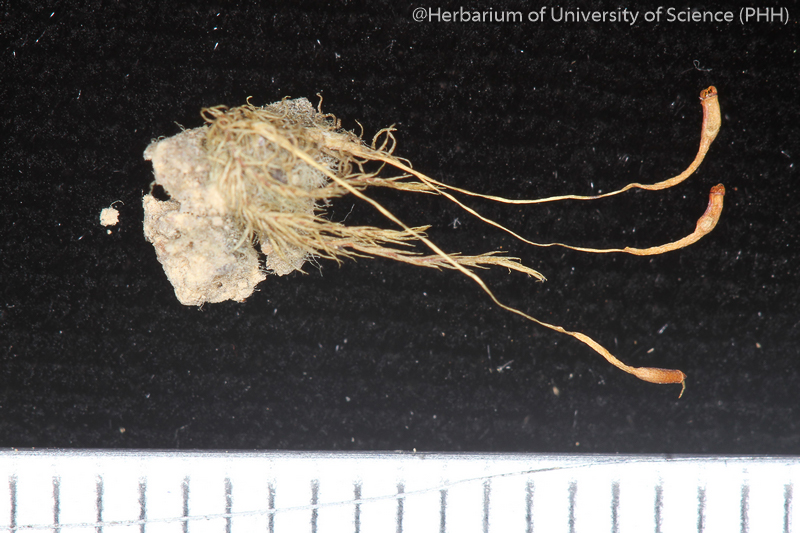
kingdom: Plantae
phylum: Bryophyta
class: Bryopsida
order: Dicranales
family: Bruchiaceae
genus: Trematodon
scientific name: Trematodon tonkinensis
